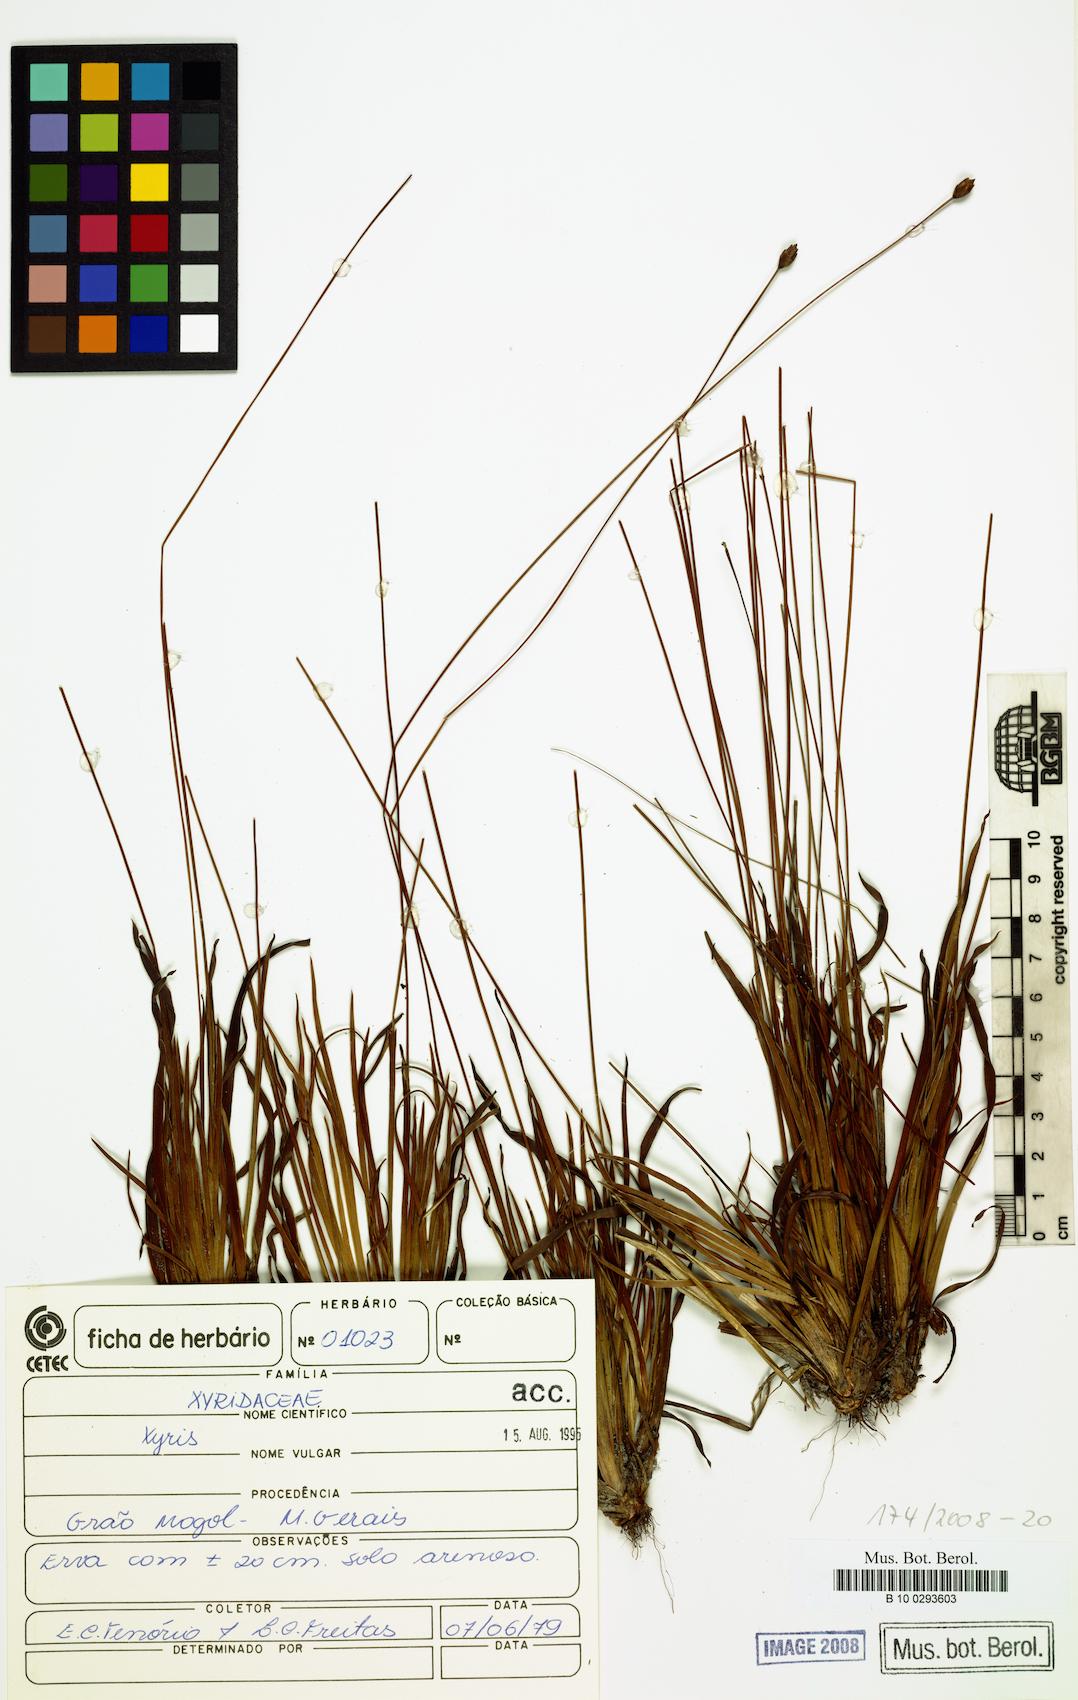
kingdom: Plantae
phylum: Tracheophyta
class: Liliopsida
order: Poales
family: Xyridaceae
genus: Xyris
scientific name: Xyris
